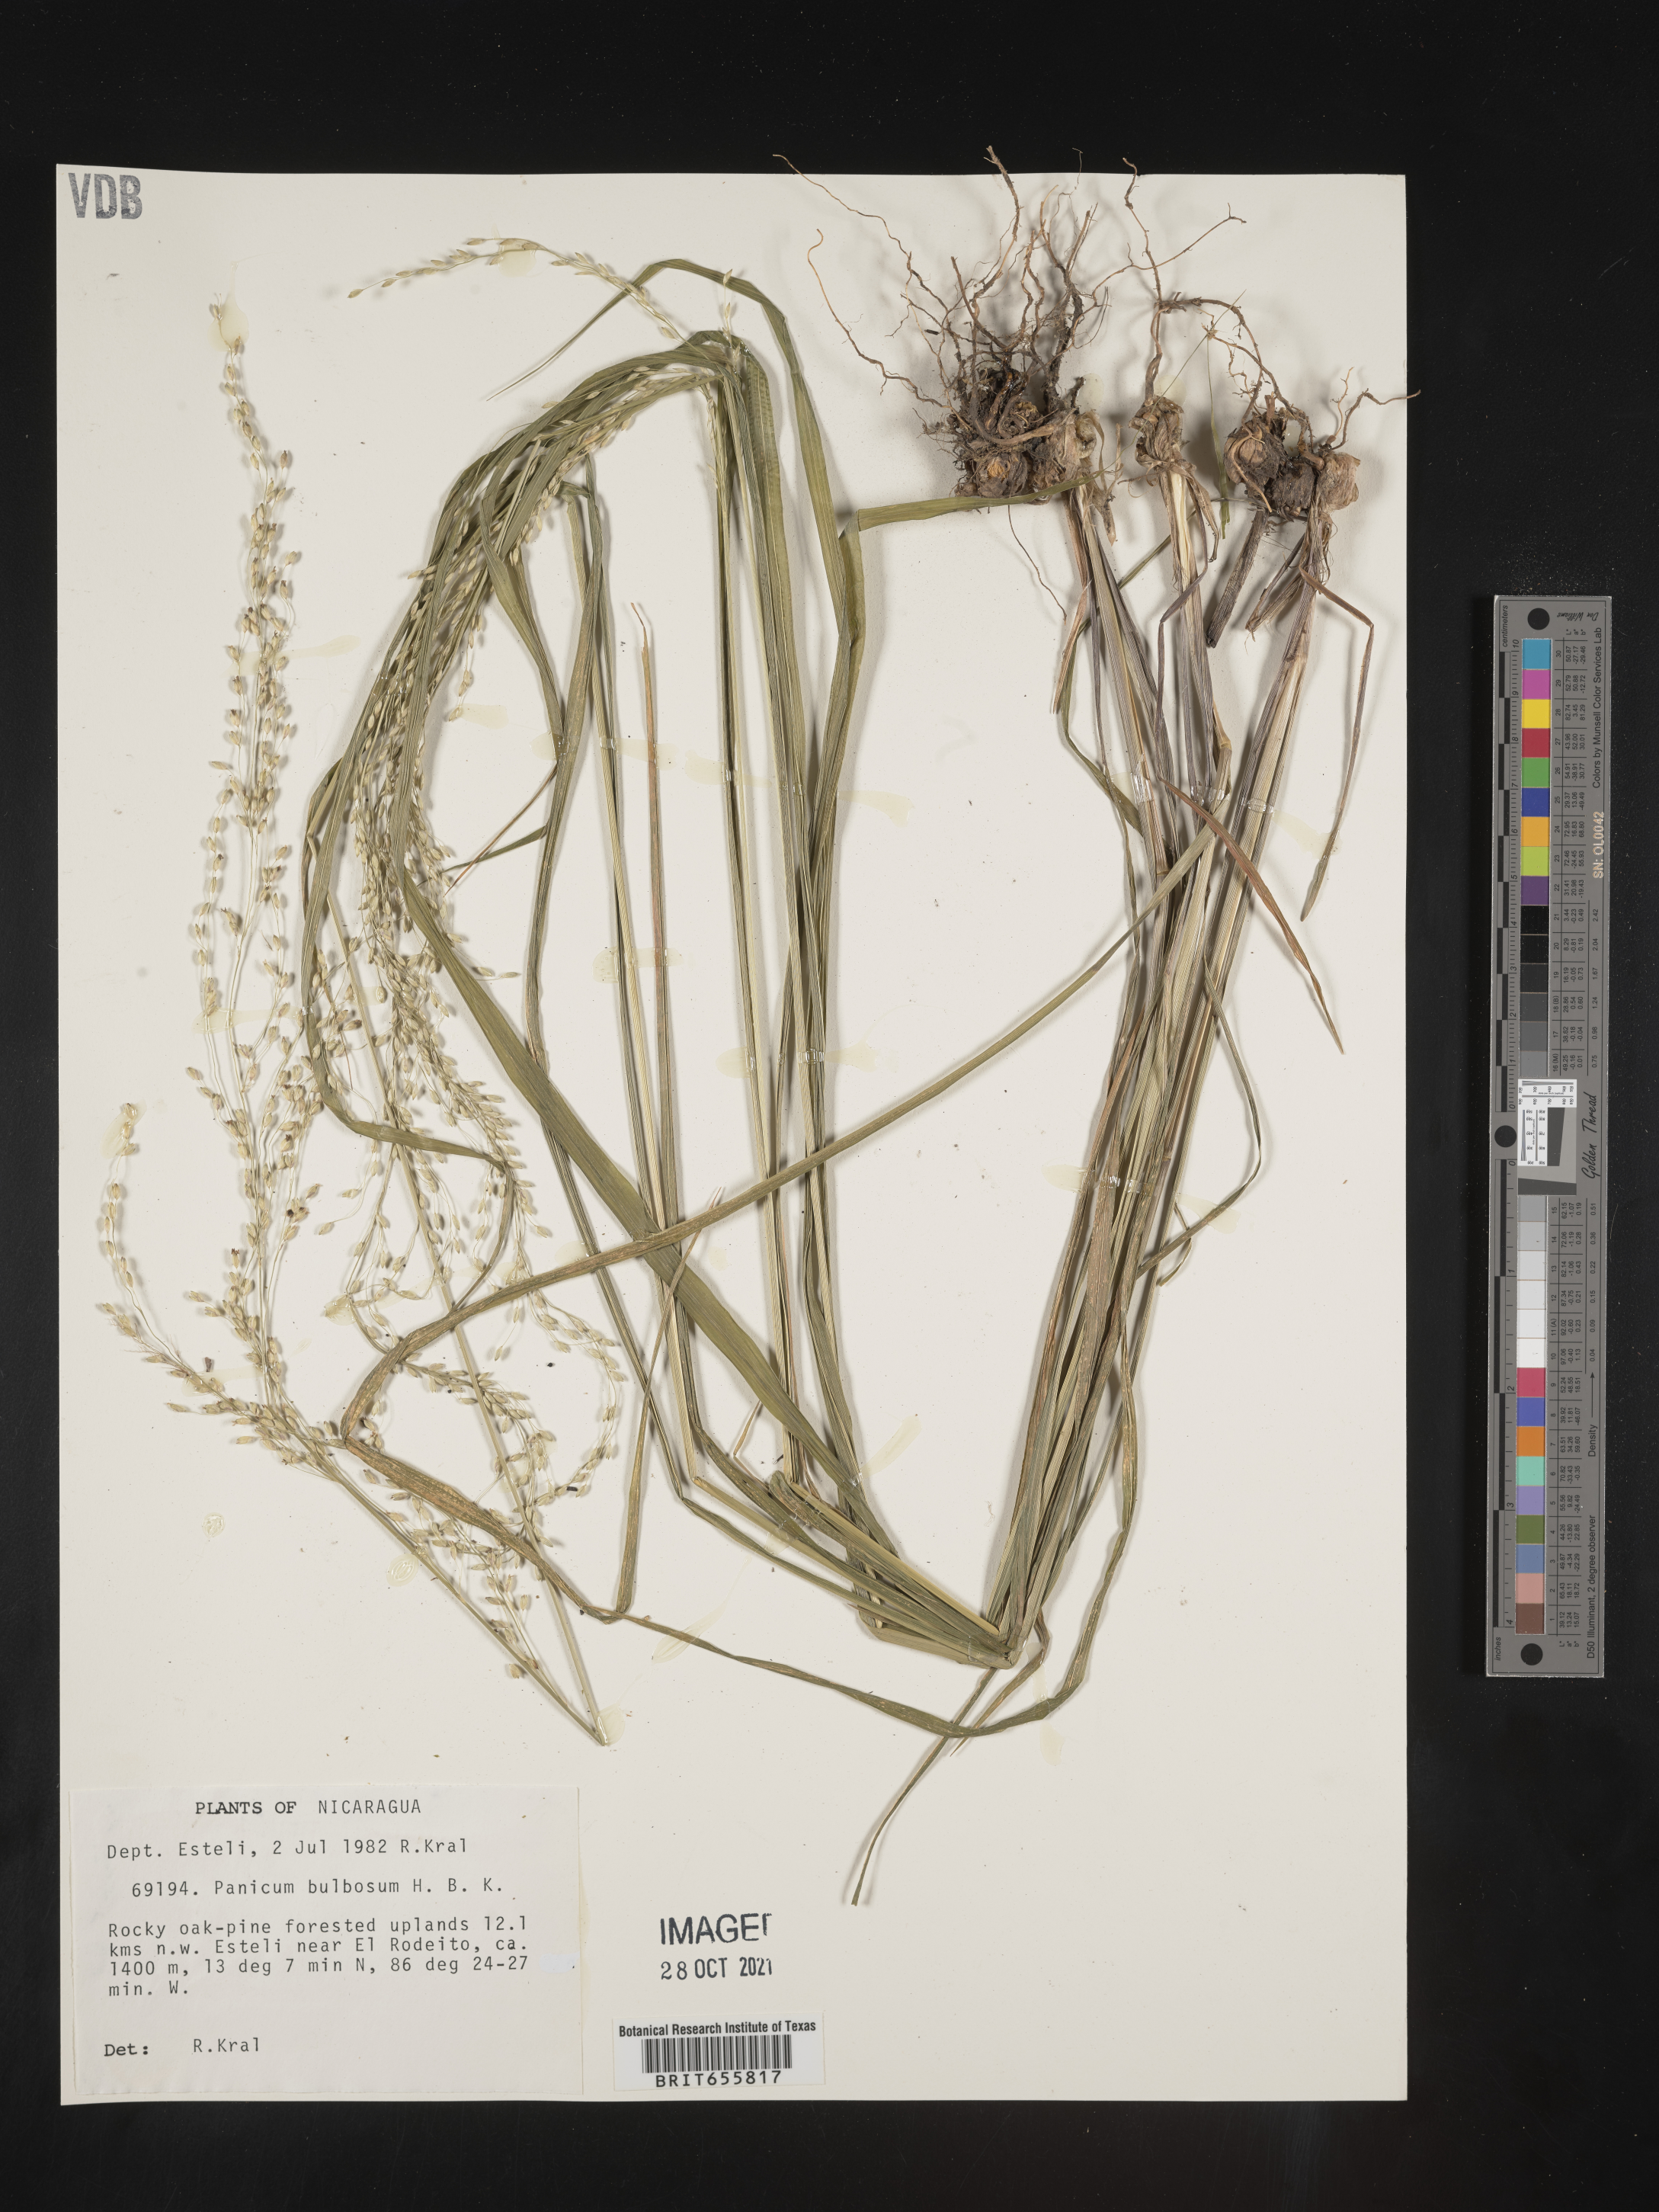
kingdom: Plantae
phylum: Tracheophyta
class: Liliopsida
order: Poales
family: Poaceae
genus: Panicum
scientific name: Panicum
